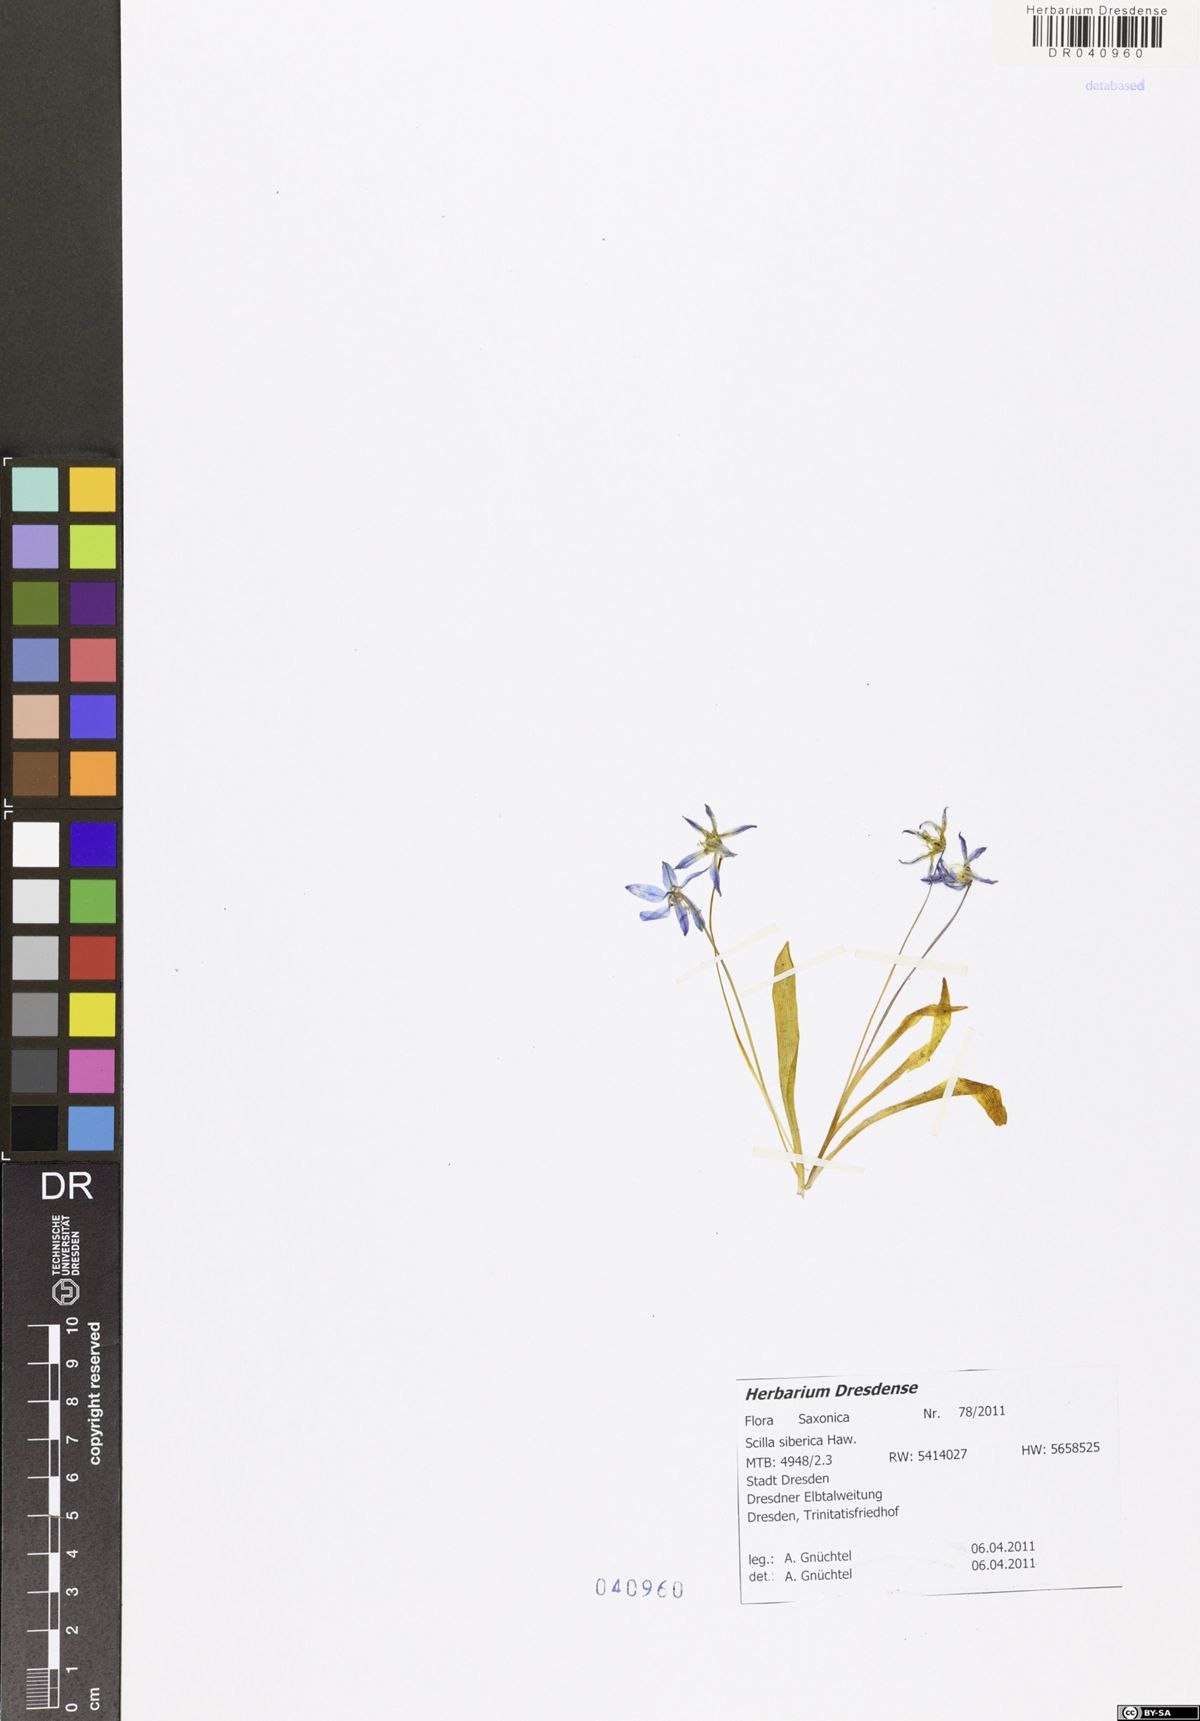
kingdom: Plantae
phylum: Tracheophyta
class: Liliopsida
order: Asparagales
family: Asparagaceae
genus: Scilla
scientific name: Scilla siberica
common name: Siberian squill
